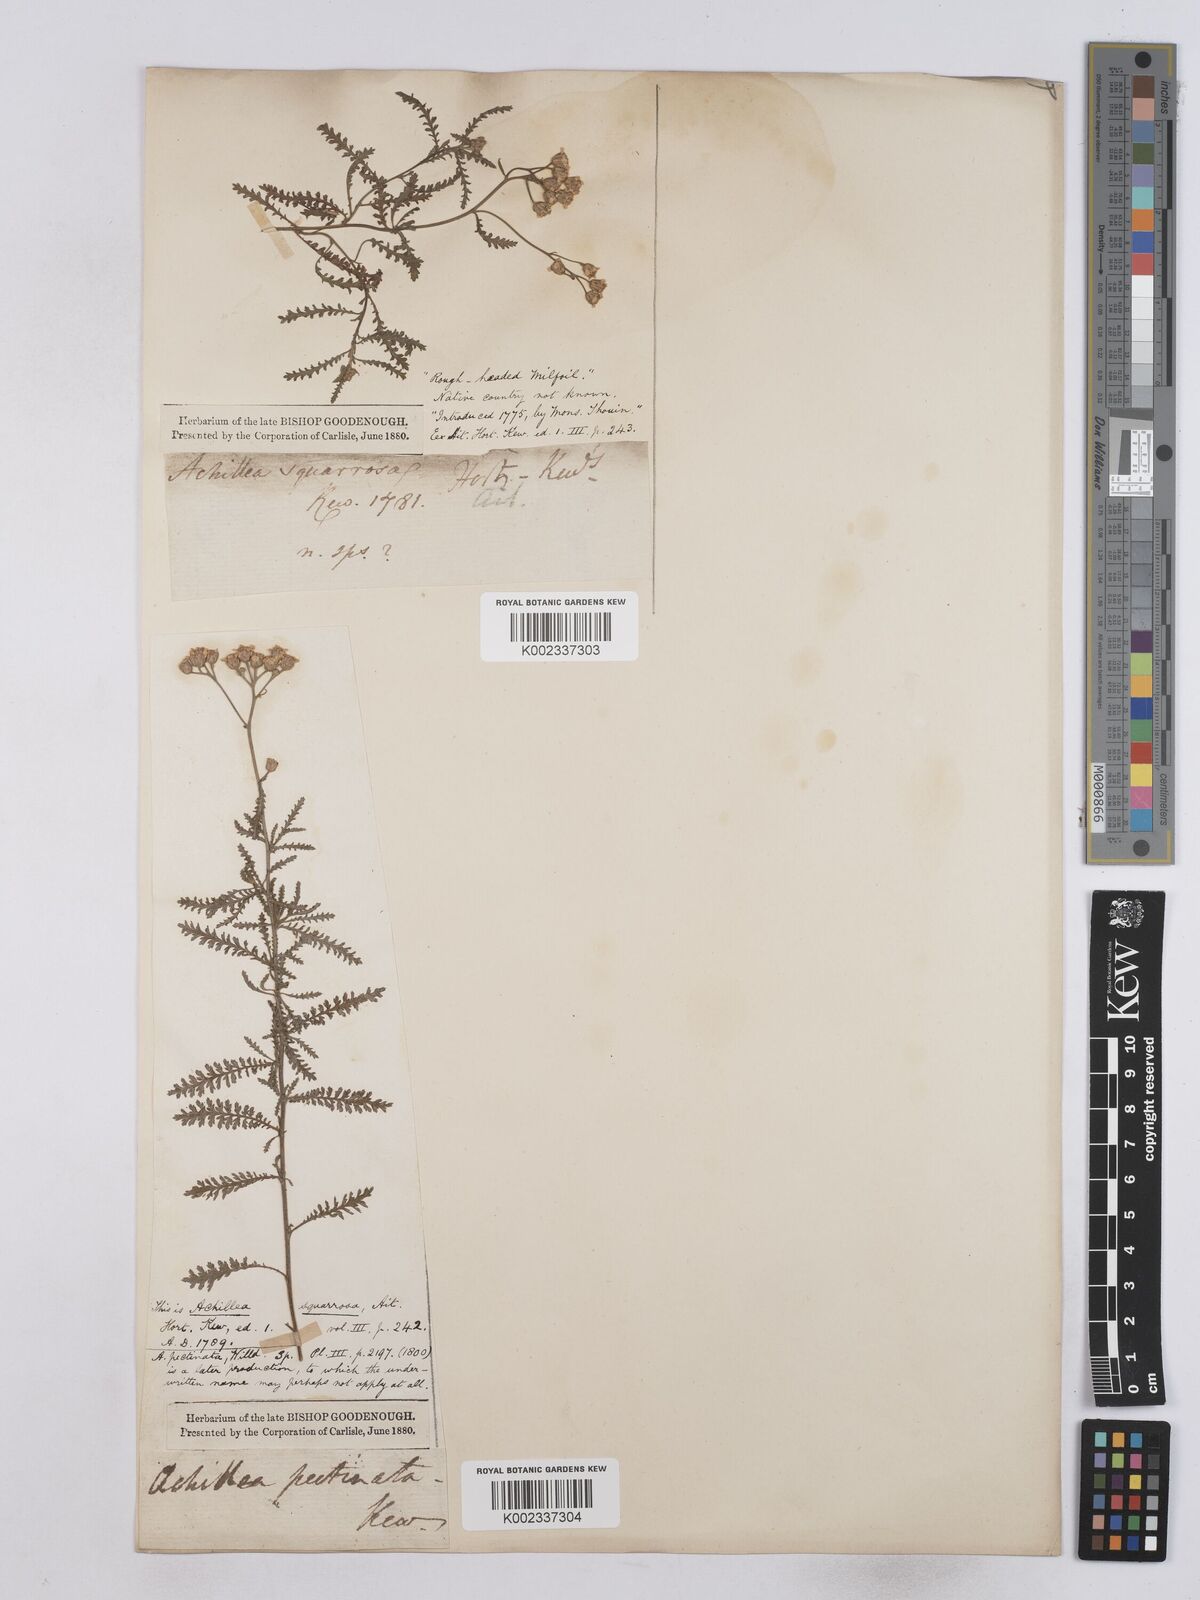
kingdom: Plantae
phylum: Tracheophyta
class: Magnoliopsida
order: Asterales
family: Asteraceae
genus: Achillea
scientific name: Achillea ochroleuca
